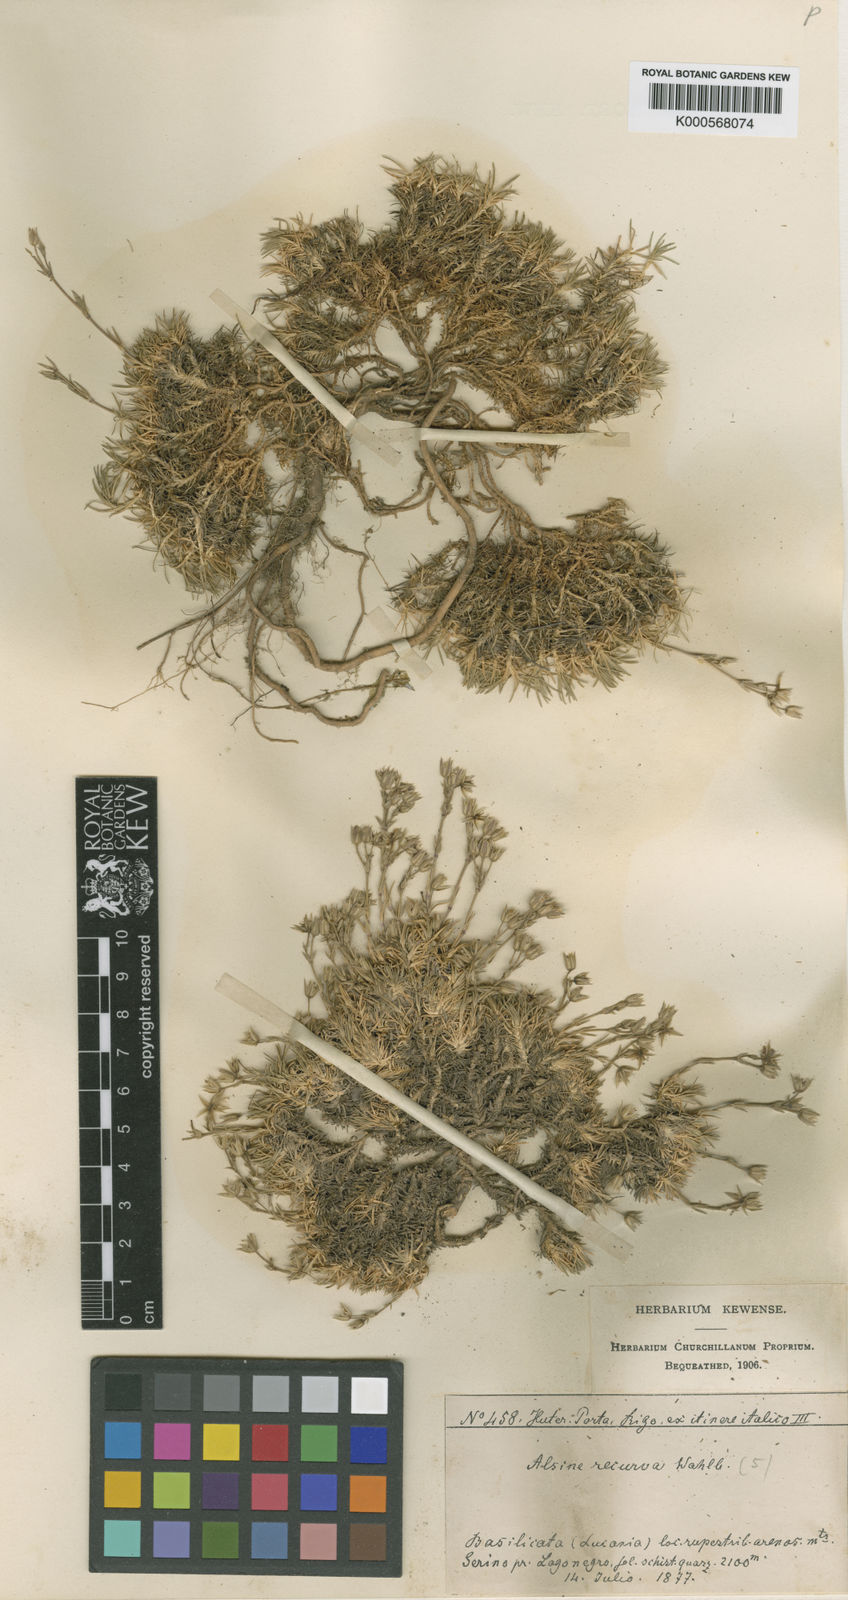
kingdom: Plantae
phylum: Tracheophyta
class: Magnoliopsida
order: Caryophyllales
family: Caryophyllaceae
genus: Minuartia
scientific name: Minuartia recurva
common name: Recurved sandwort
